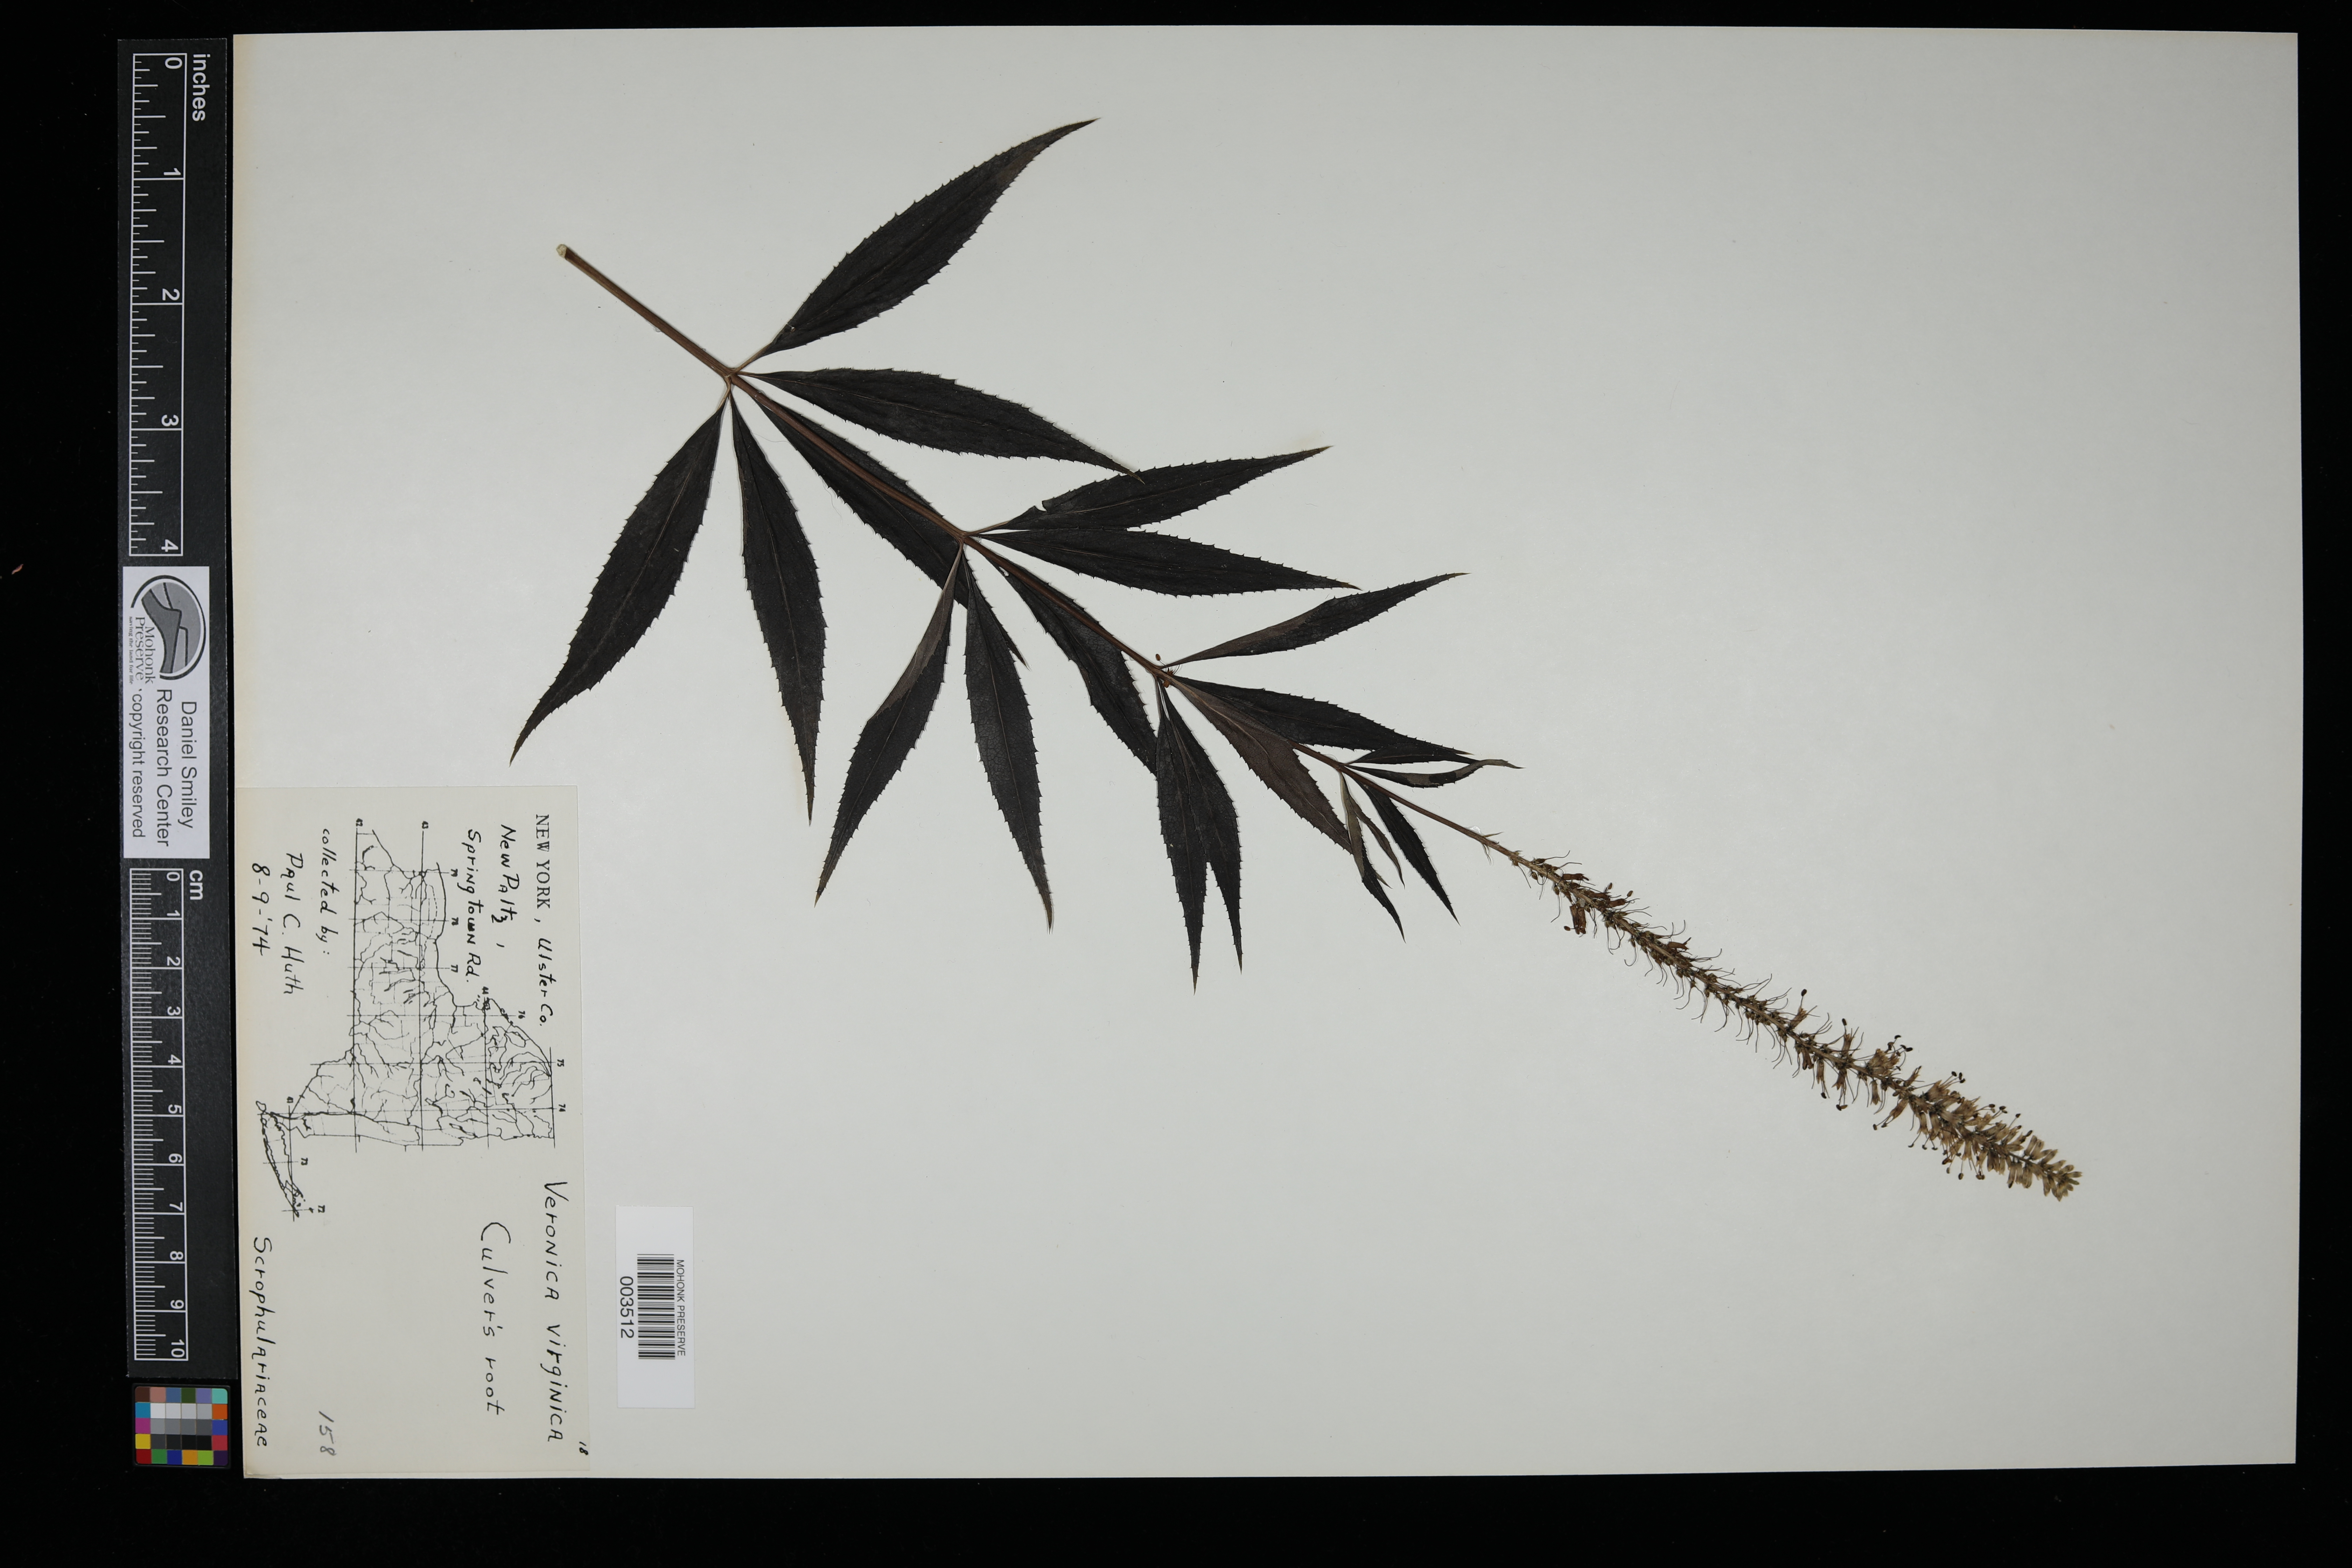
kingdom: Plantae
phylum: Tracheophyta
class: Magnoliopsida
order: Lamiales
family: Plantaginaceae
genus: Veronicastrum
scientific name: Veronicastrum virginicum
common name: Blackroot
